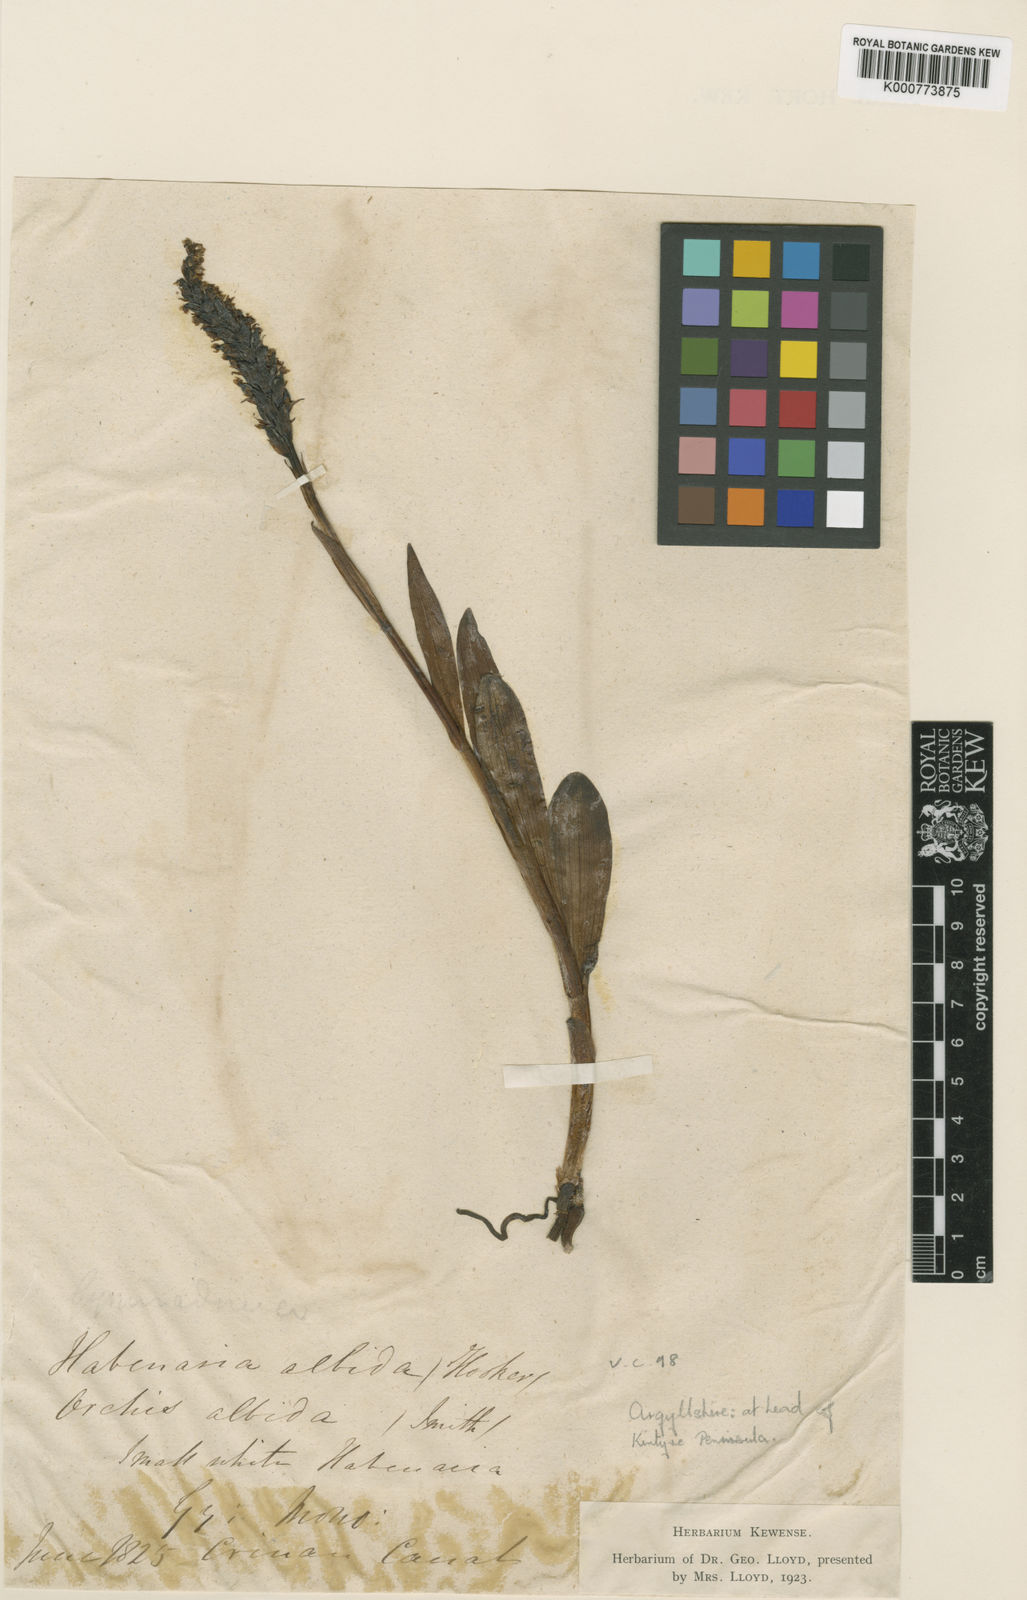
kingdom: Plantae
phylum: Tracheophyta
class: Liliopsida
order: Asparagales
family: Orchidaceae
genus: Pseudorchis
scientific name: Pseudorchis
